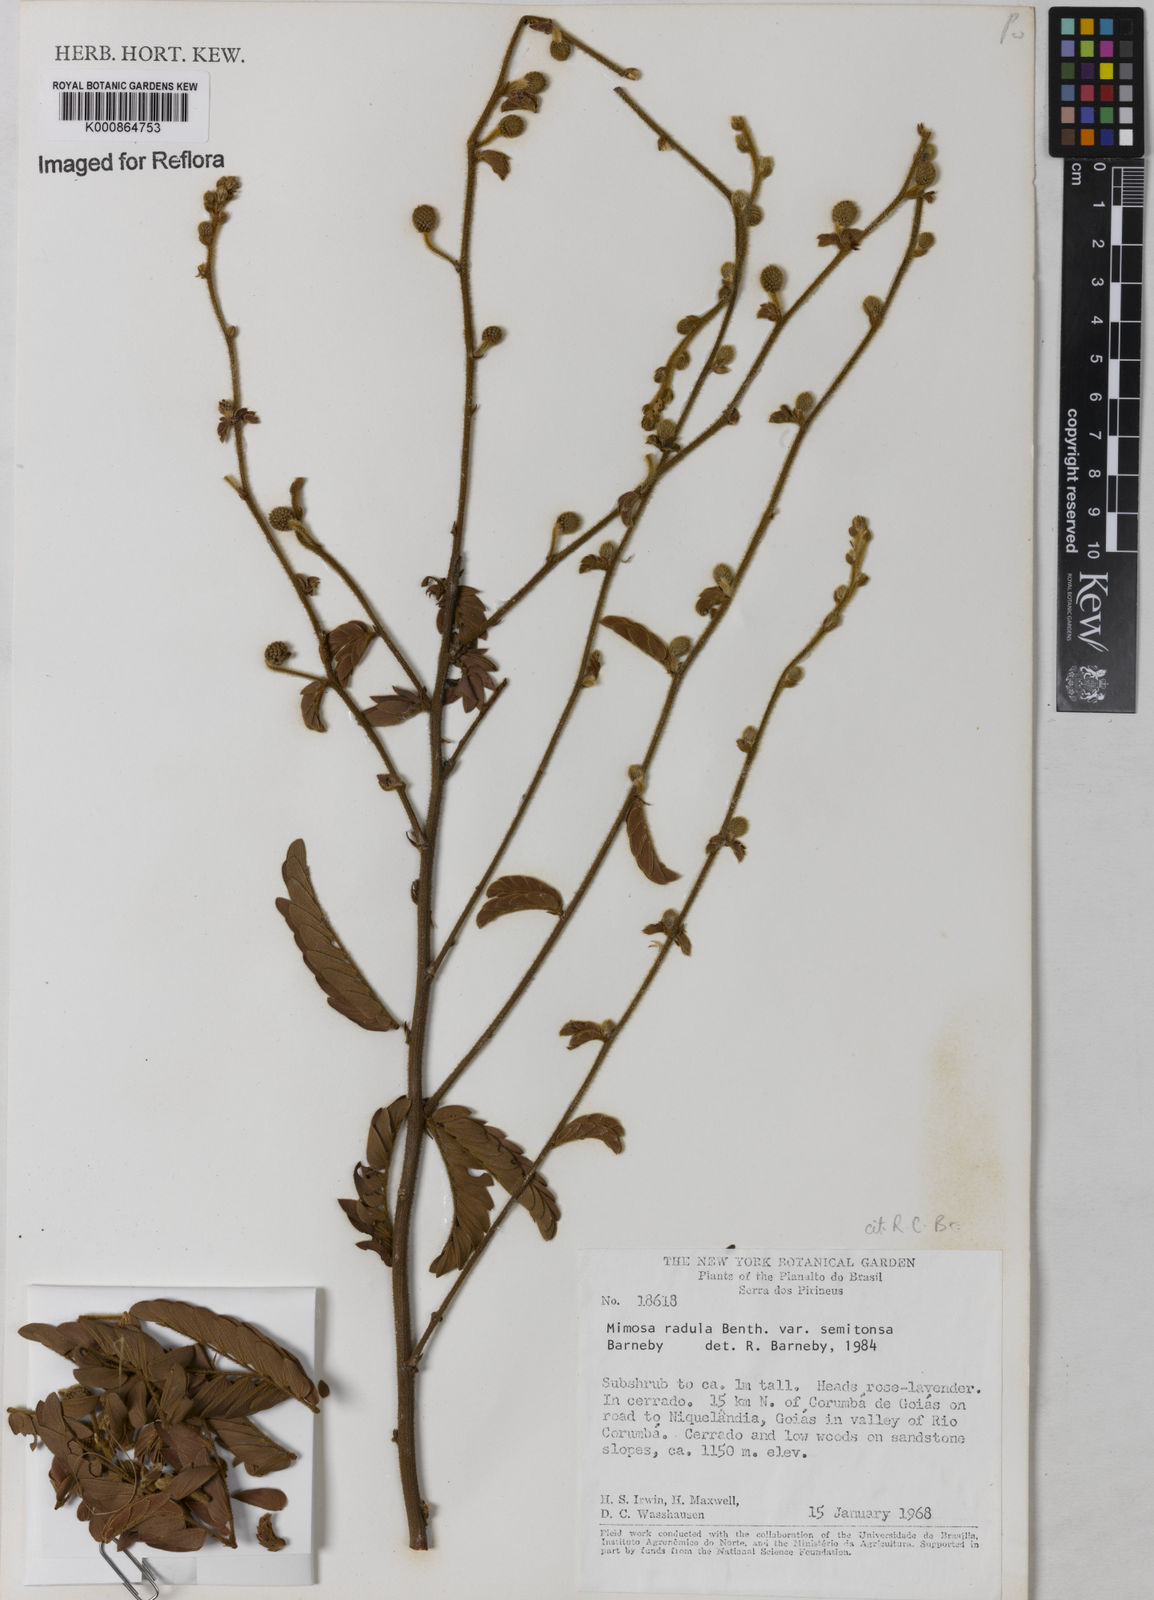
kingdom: Plantae
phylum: Tracheophyta
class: Magnoliopsida
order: Fabales
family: Fabaceae
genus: Mimosa
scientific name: Mimosa radula
